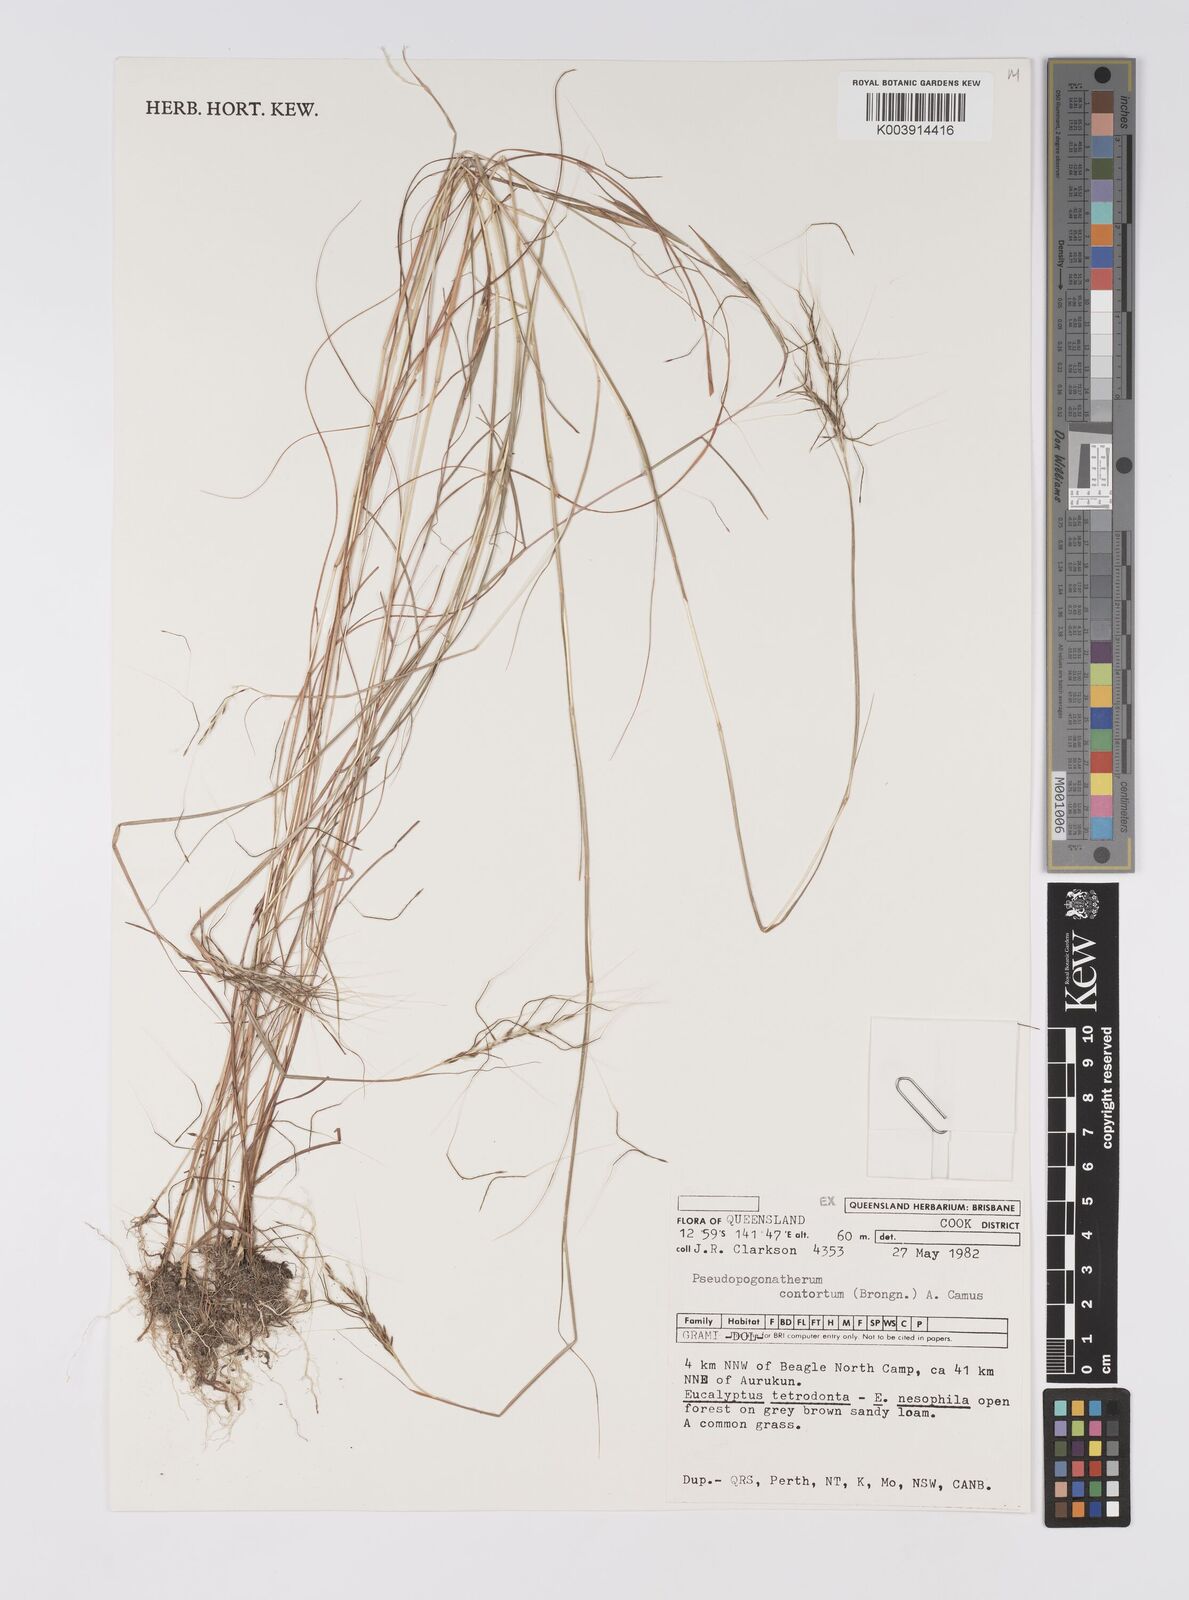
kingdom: Plantae
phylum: Tracheophyta
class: Liliopsida
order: Poales
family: Poaceae
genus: Pseudopogonatherum
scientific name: Pseudopogonatherum contortum
